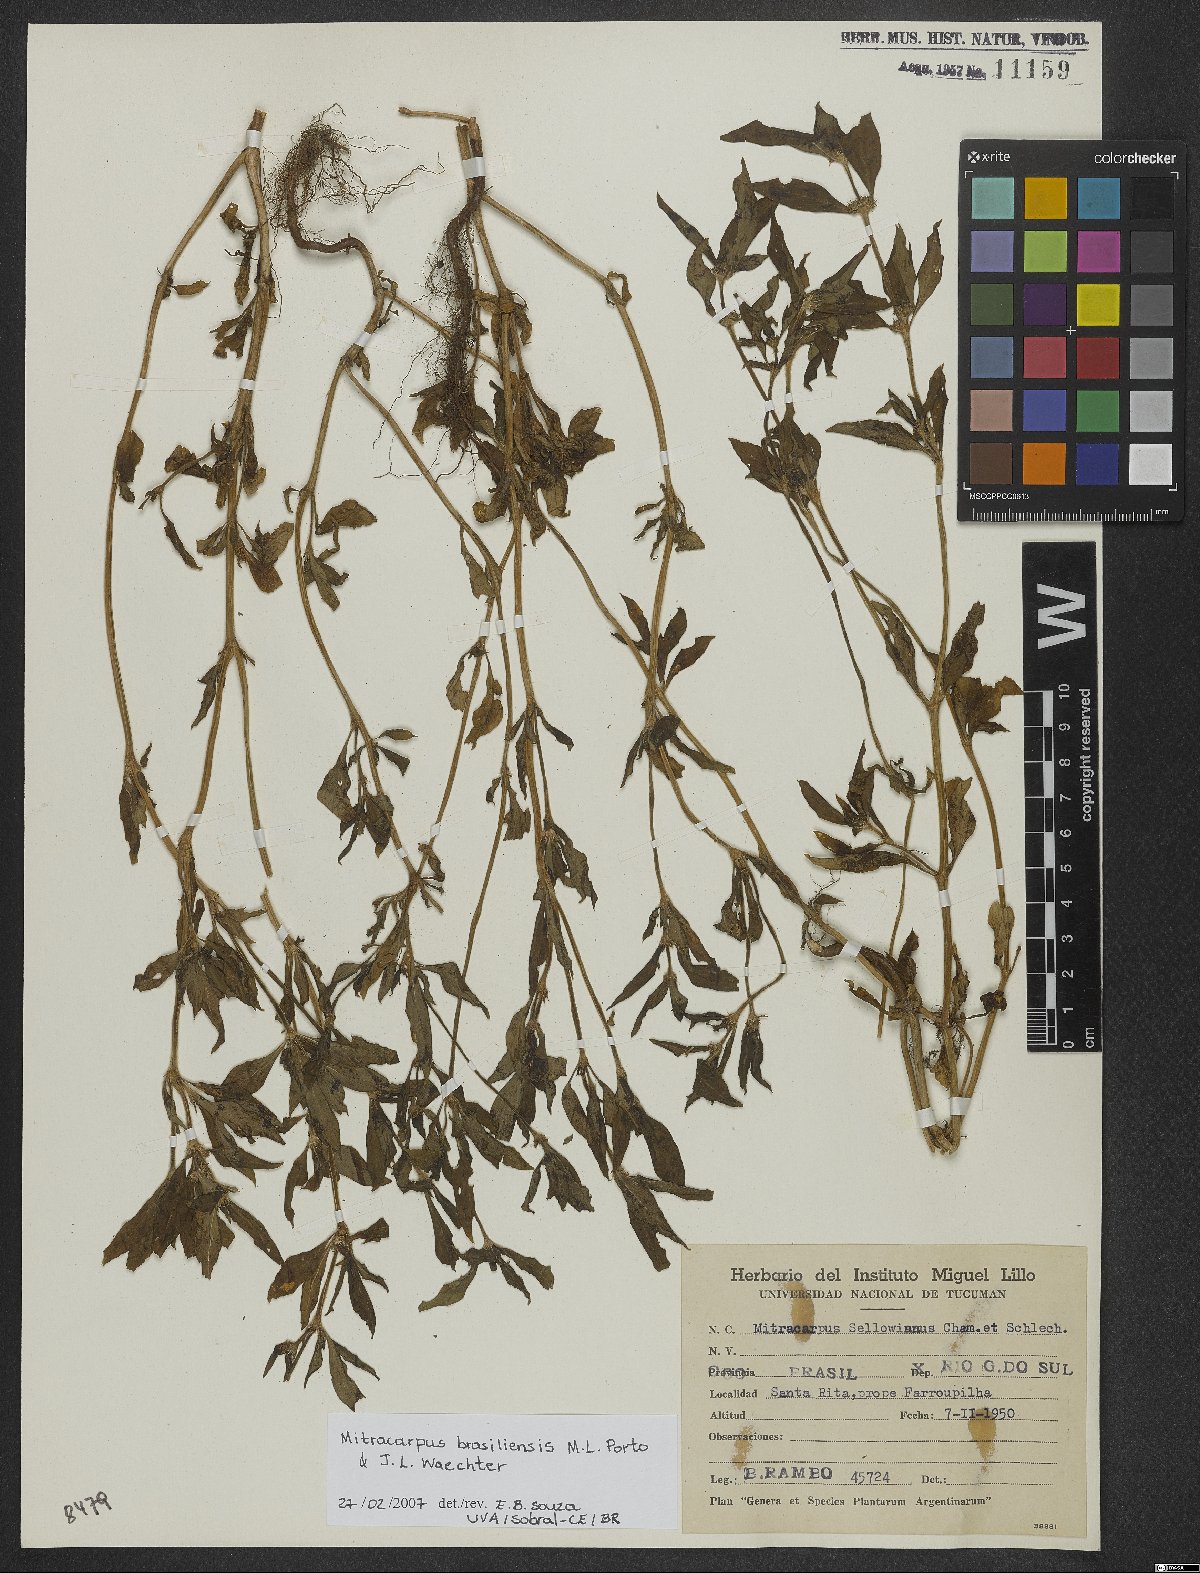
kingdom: Plantae
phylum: Tracheophyta
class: Magnoliopsida
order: Gentianales
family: Rubiaceae
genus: Mitracarpus
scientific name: Mitracarpus brasiliensis
